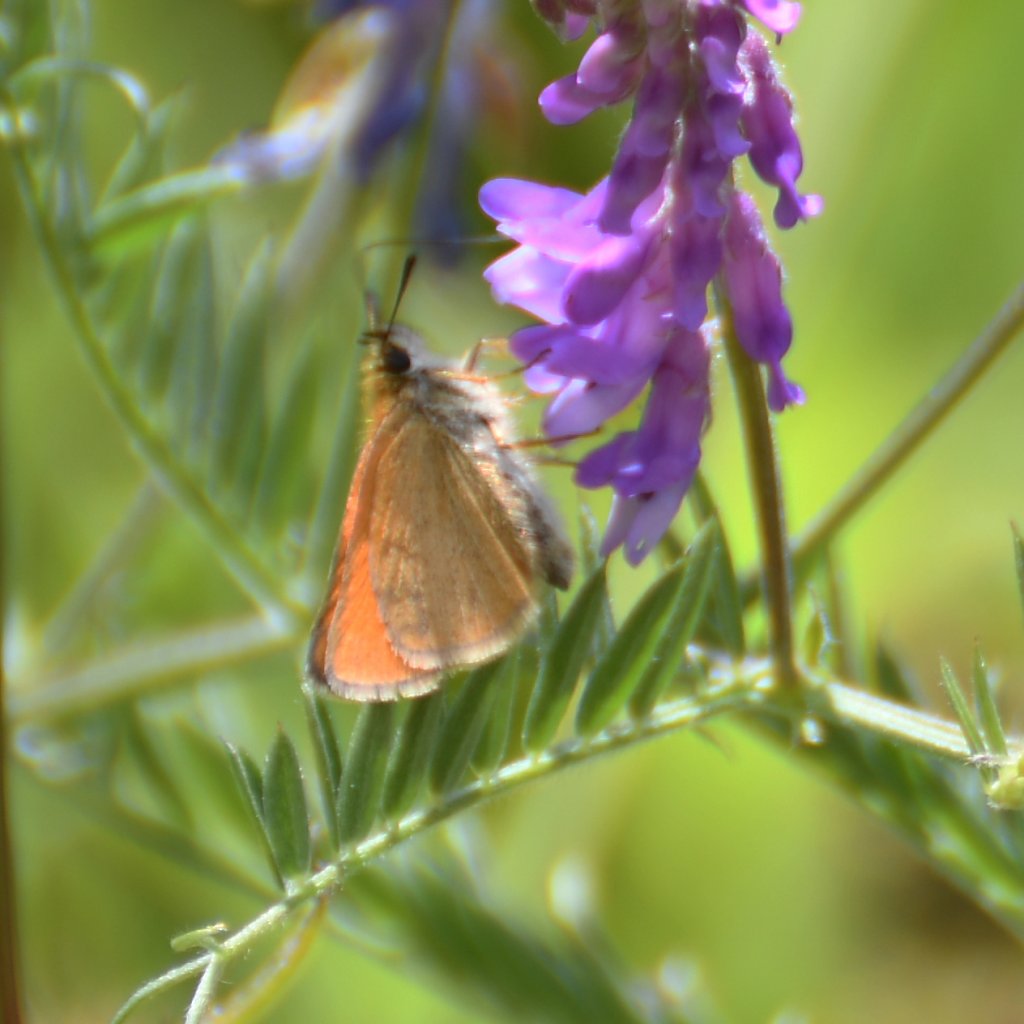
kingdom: Animalia
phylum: Arthropoda
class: Insecta
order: Lepidoptera
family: Hesperiidae
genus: Thymelicus
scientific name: Thymelicus lineola
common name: European Skipper
